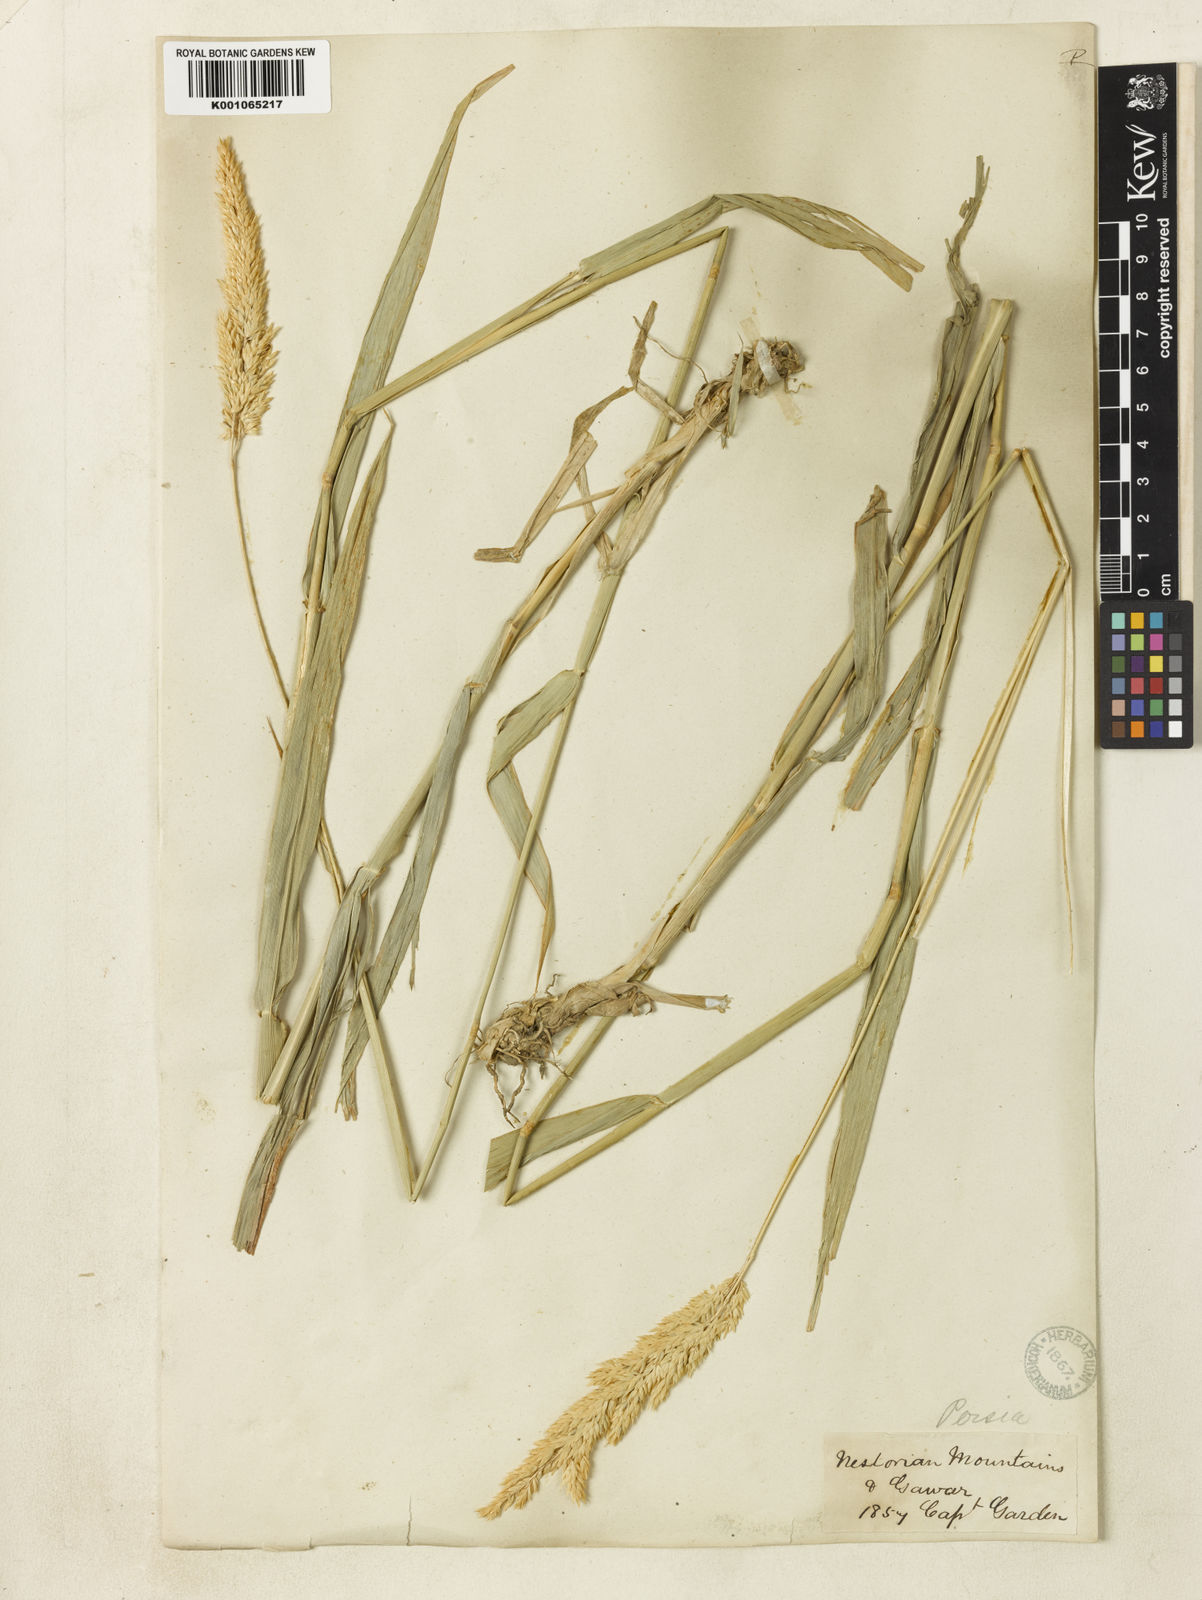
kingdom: Plantae
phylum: Tracheophyta
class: Liliopsida
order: Poales
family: Poaceae
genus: Phalaris
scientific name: Phalaris arundinacea
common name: Reed canary-grass
